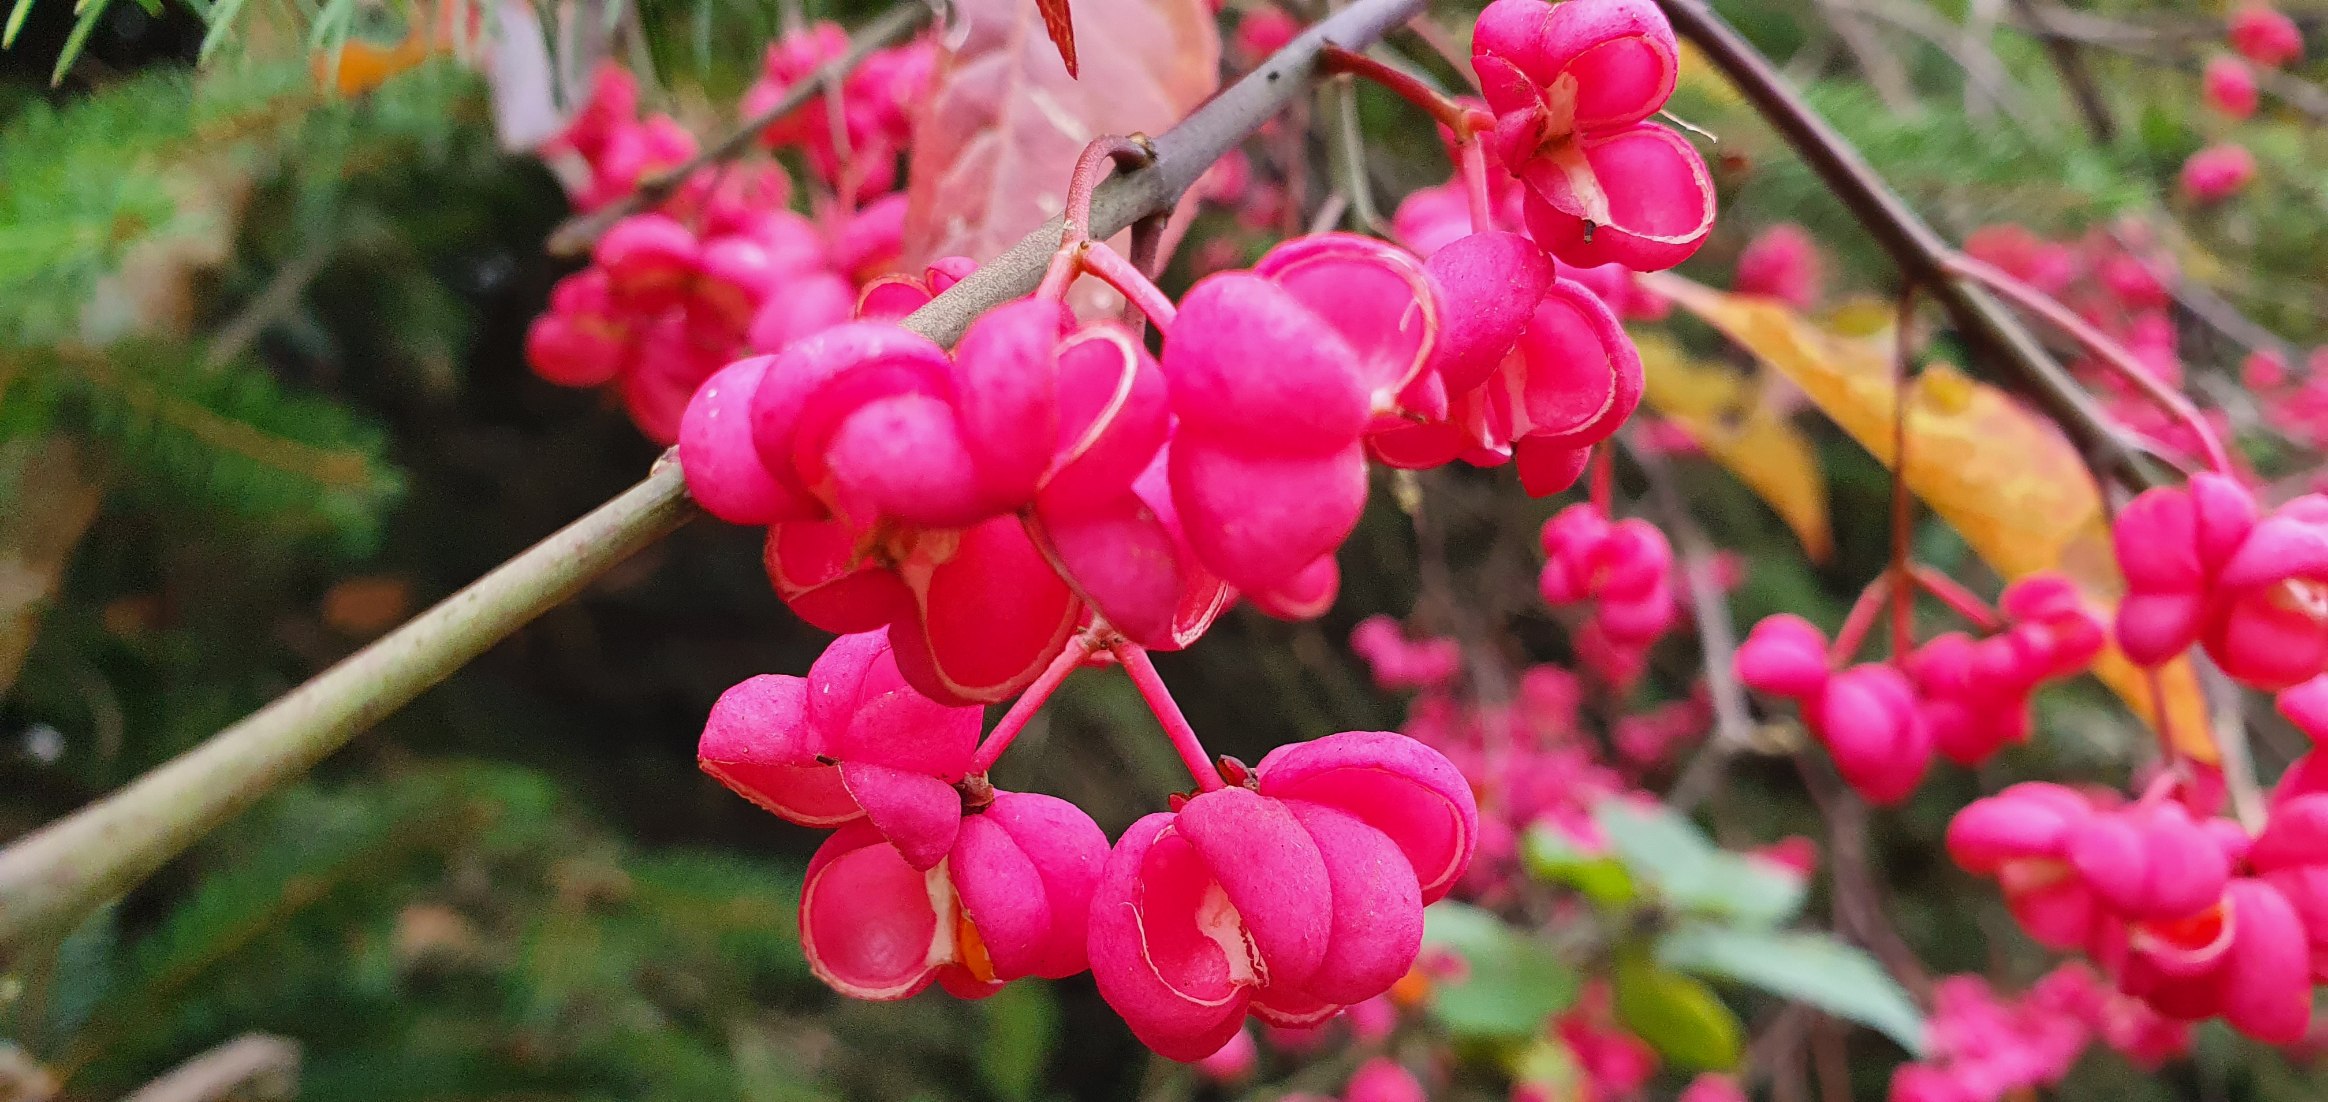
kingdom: Plantae
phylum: Tracheophyta
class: Magnoliopsida
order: Celastrales
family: Celastraceae
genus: Euonymus
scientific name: Euonymus europaeus
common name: Benved
